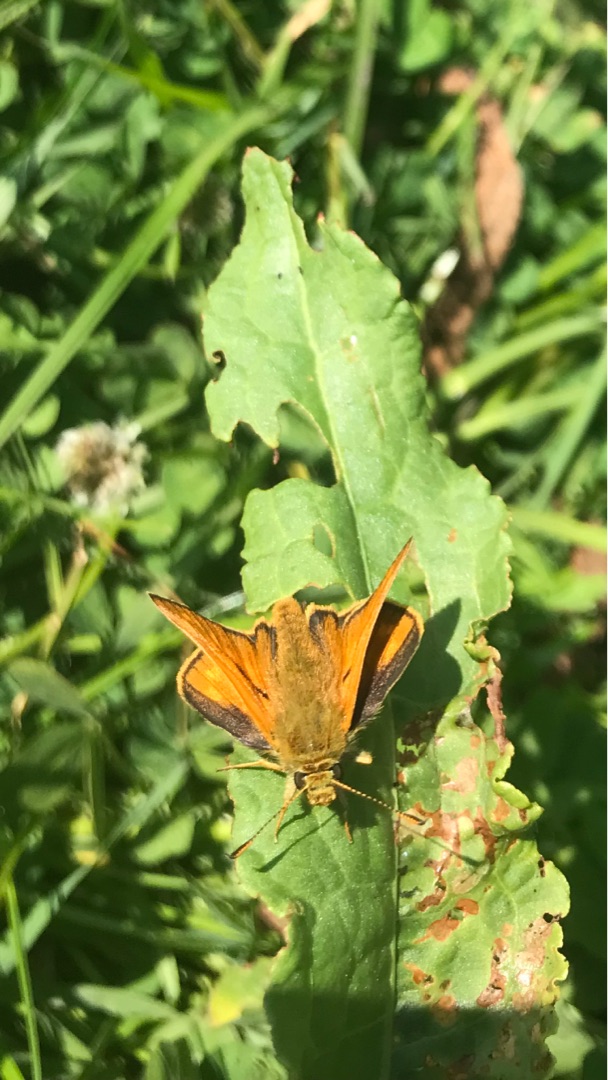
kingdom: Animalia
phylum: Arthropoda
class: Insecta
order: Lepidoptera
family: Hesperiidae
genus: Ochlodes
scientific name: Ochlodes venata
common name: Stor bredpande
